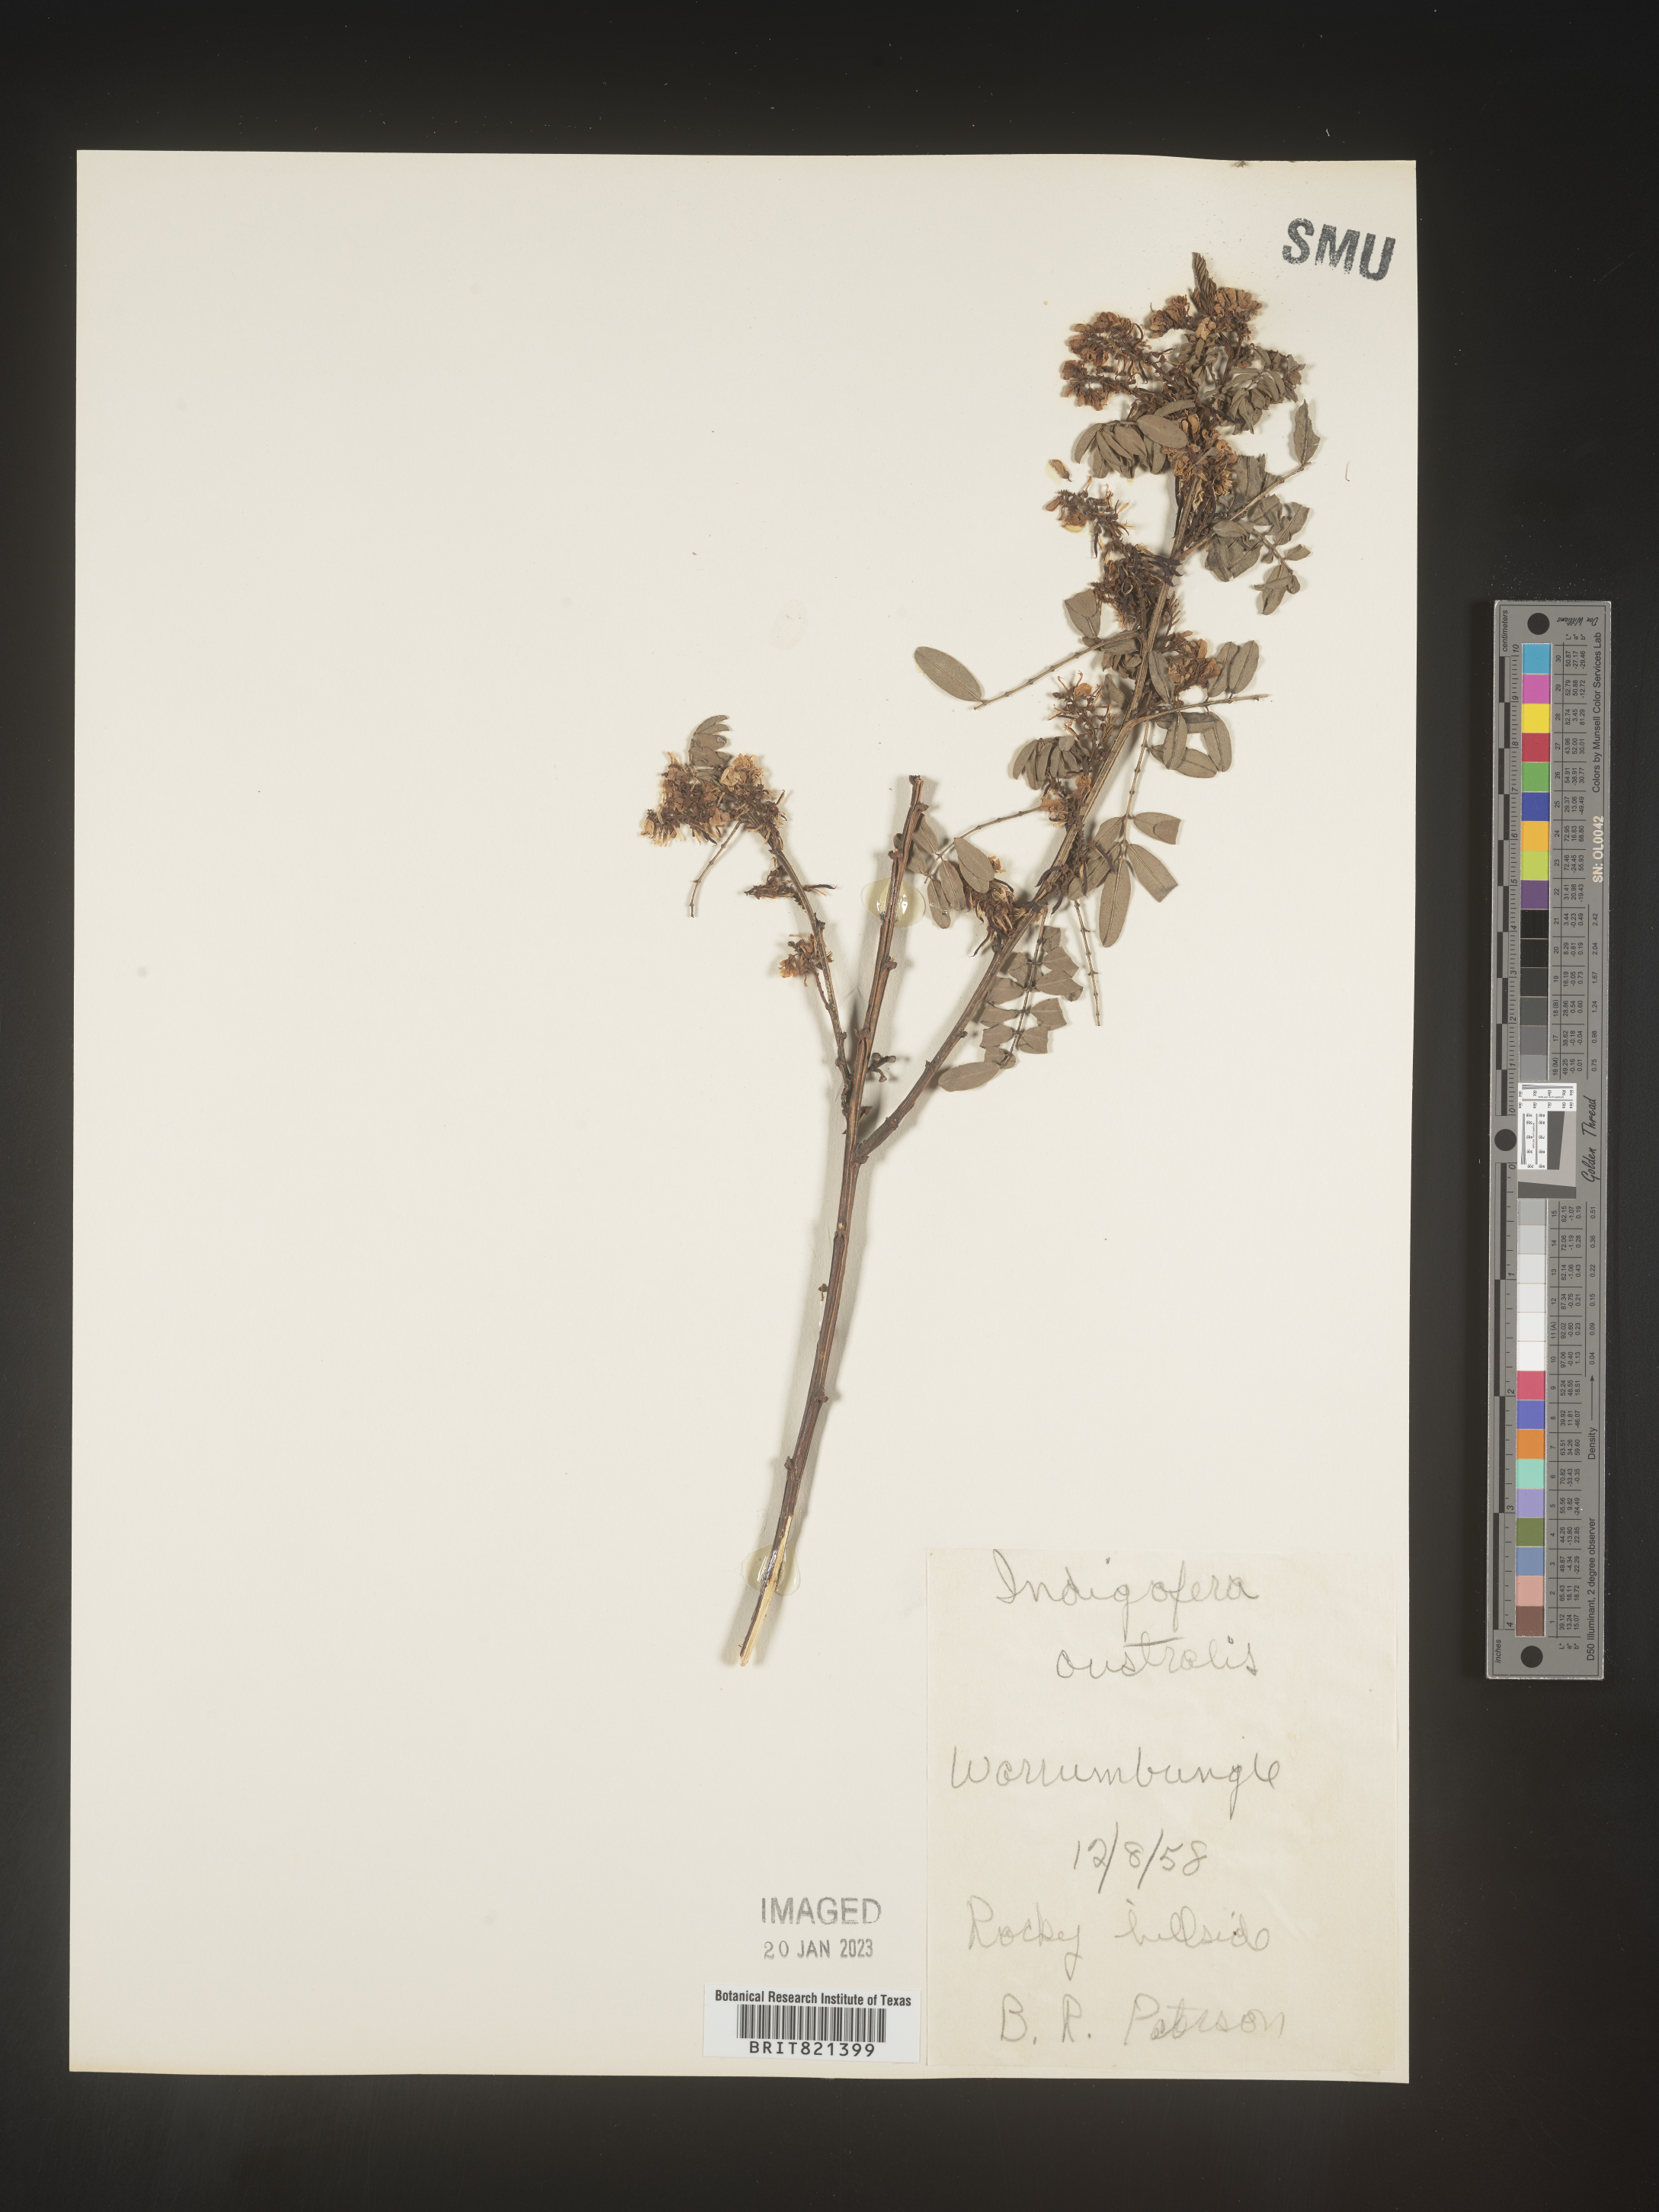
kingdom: Plantae
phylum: Tracheophyta
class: Magnoliopsida
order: Fabales
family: Fabaceae
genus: Indigofera
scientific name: Indigofera
